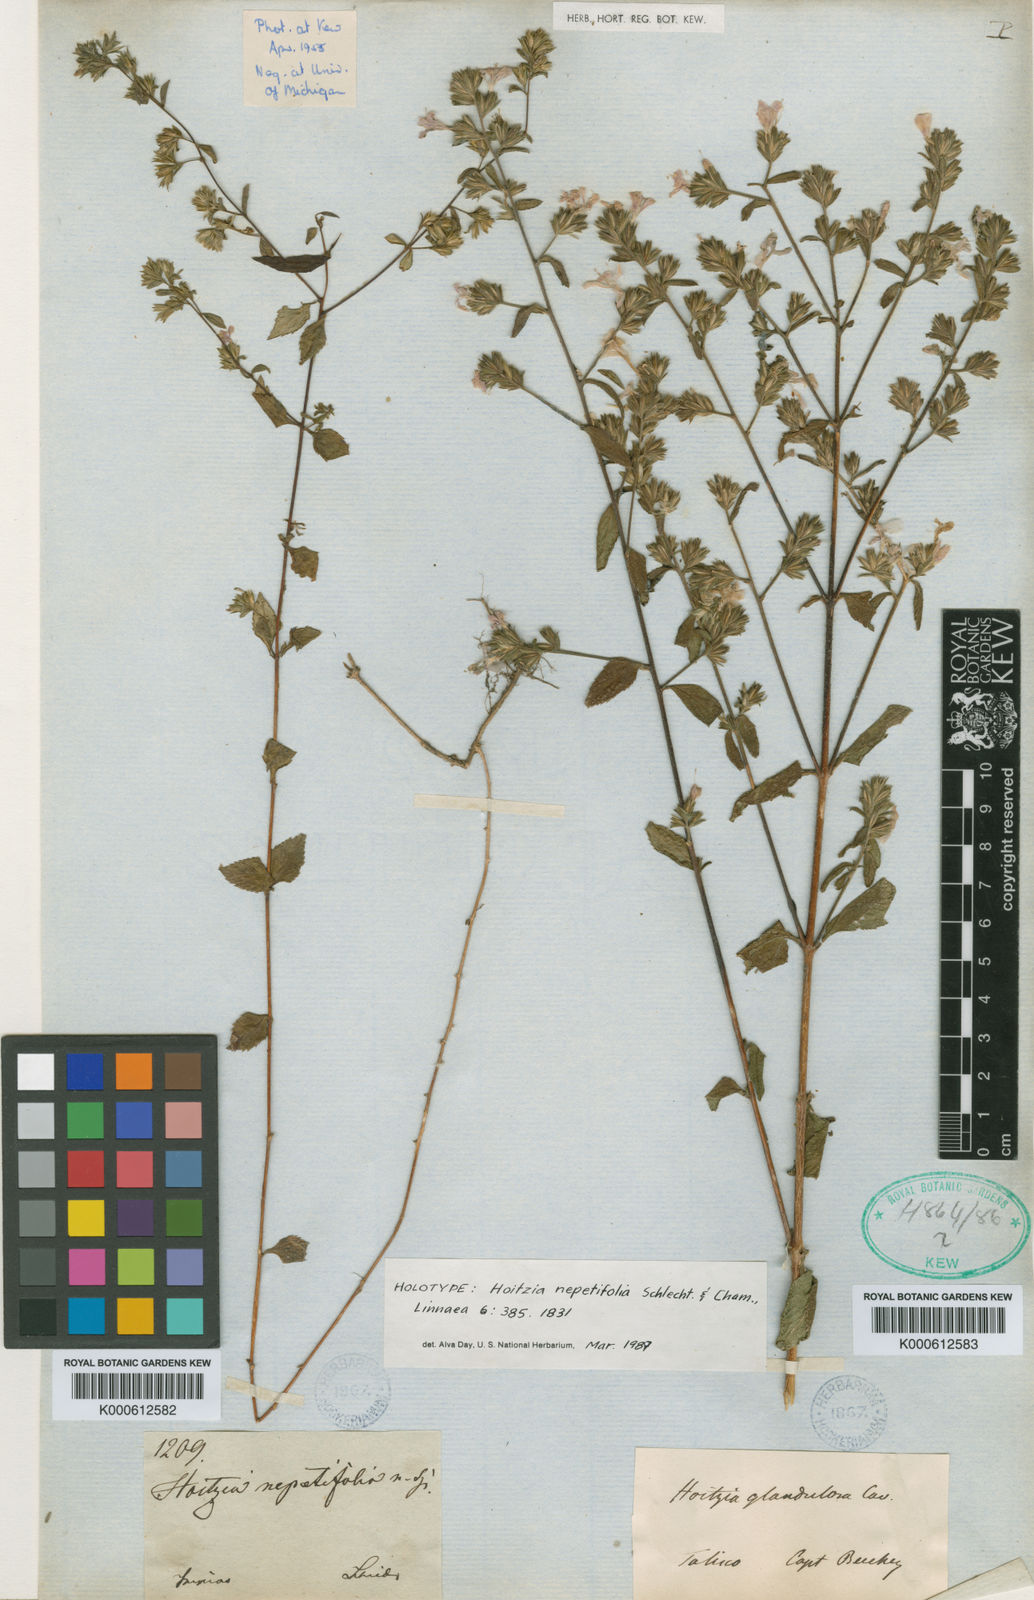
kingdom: Plantae
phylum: Tracheophyta
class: Magnoliopsida
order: Ericales
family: Polemoniaceae
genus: Loeselia
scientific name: Loeselia glandulosa
